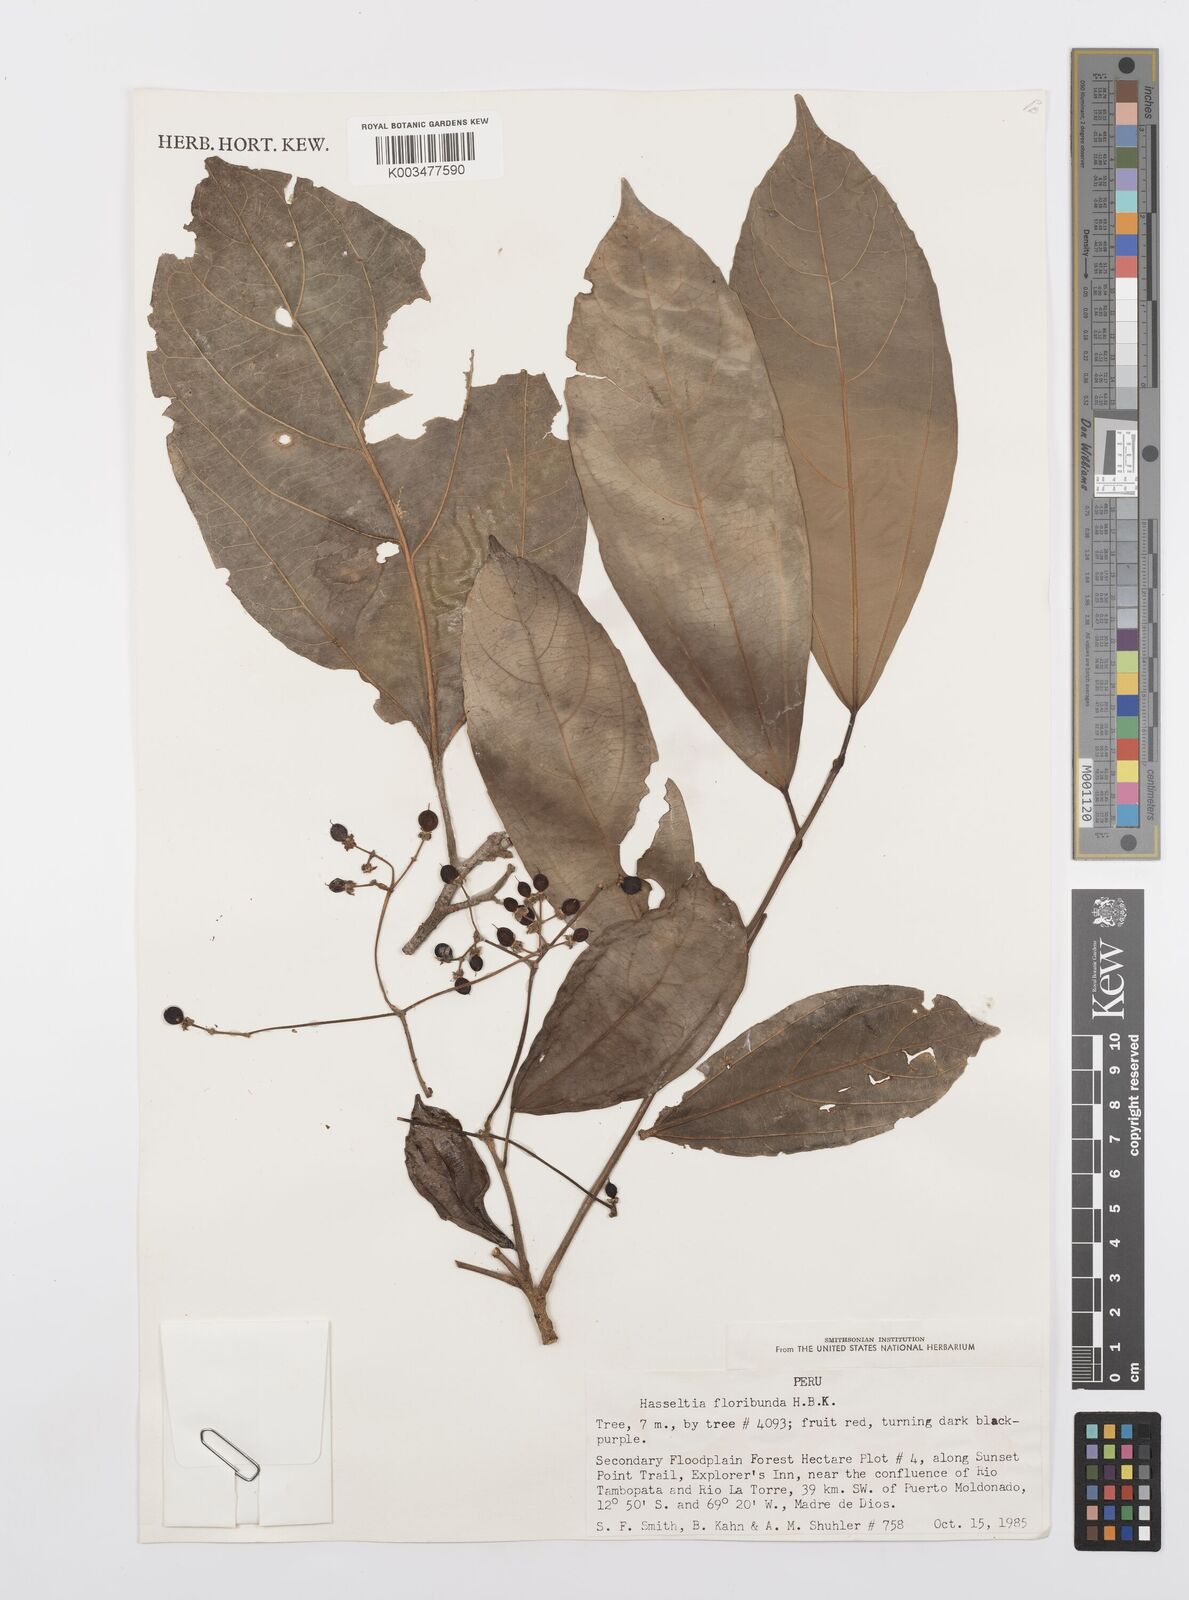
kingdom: Plantae
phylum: Tracheophyta
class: Magnoliopsida
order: Malpighiales
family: Salicaceae
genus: Hasseltia
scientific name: Hasseltia floribunda
